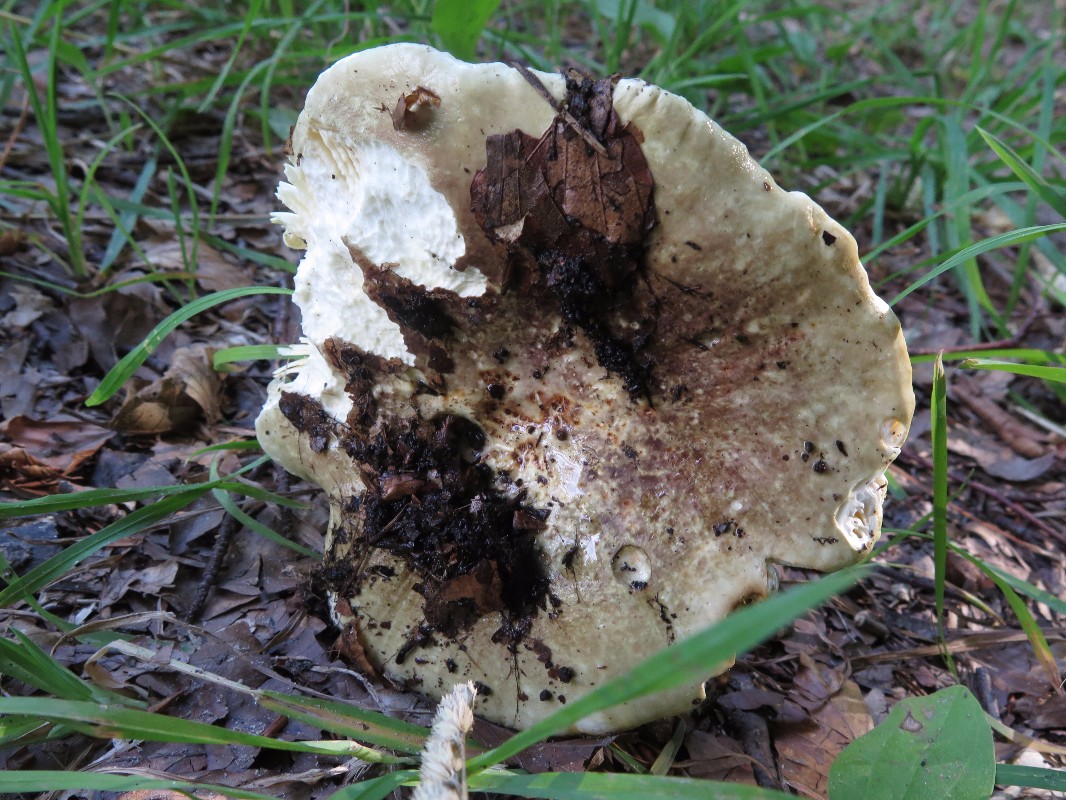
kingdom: Fungi
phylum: Basidiomycota
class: Agaricomycetes
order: Russulales
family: Russulaceae
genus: Russula
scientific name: Russula olivacea
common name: stor skørhat
